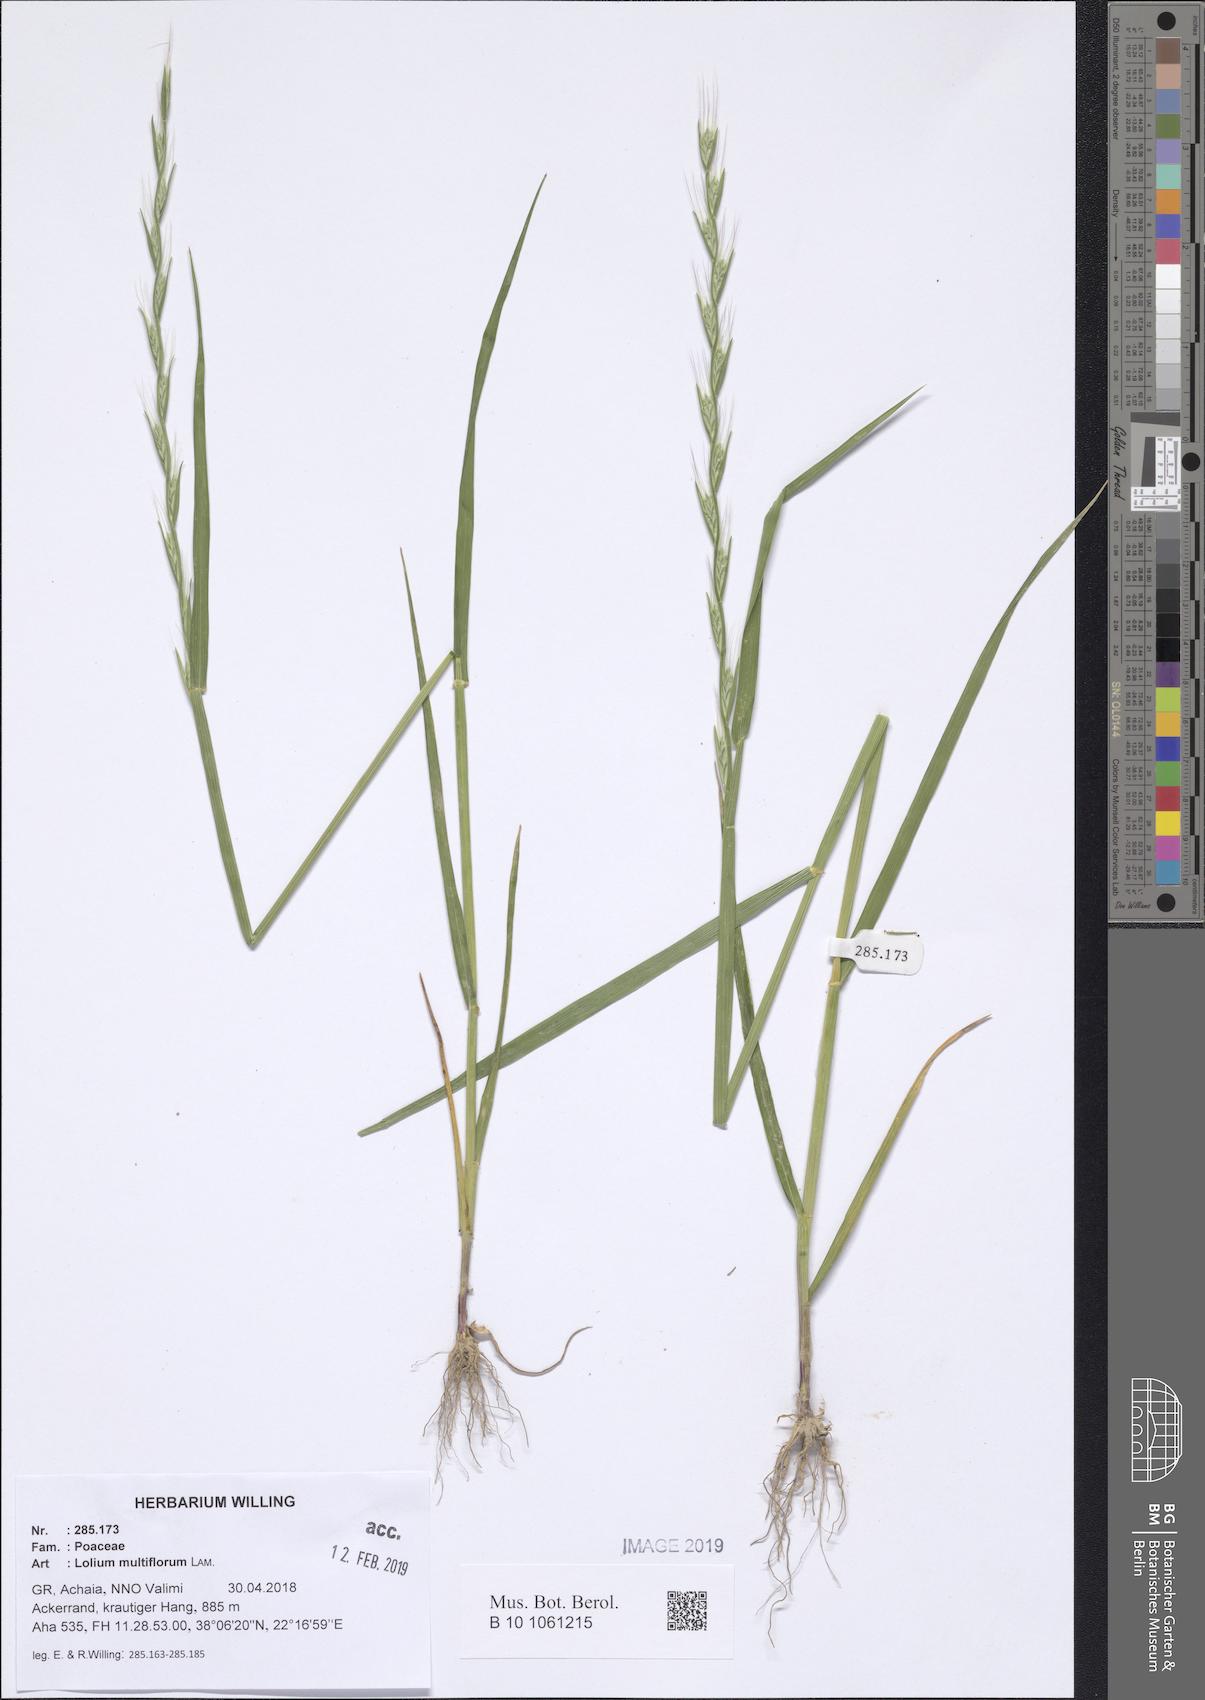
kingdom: Plantae
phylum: Tracheophyta
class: Liliopsida
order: Poales
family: Poaceae
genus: Lolium
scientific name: Lolium multiflorum
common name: Annual ryegrass
